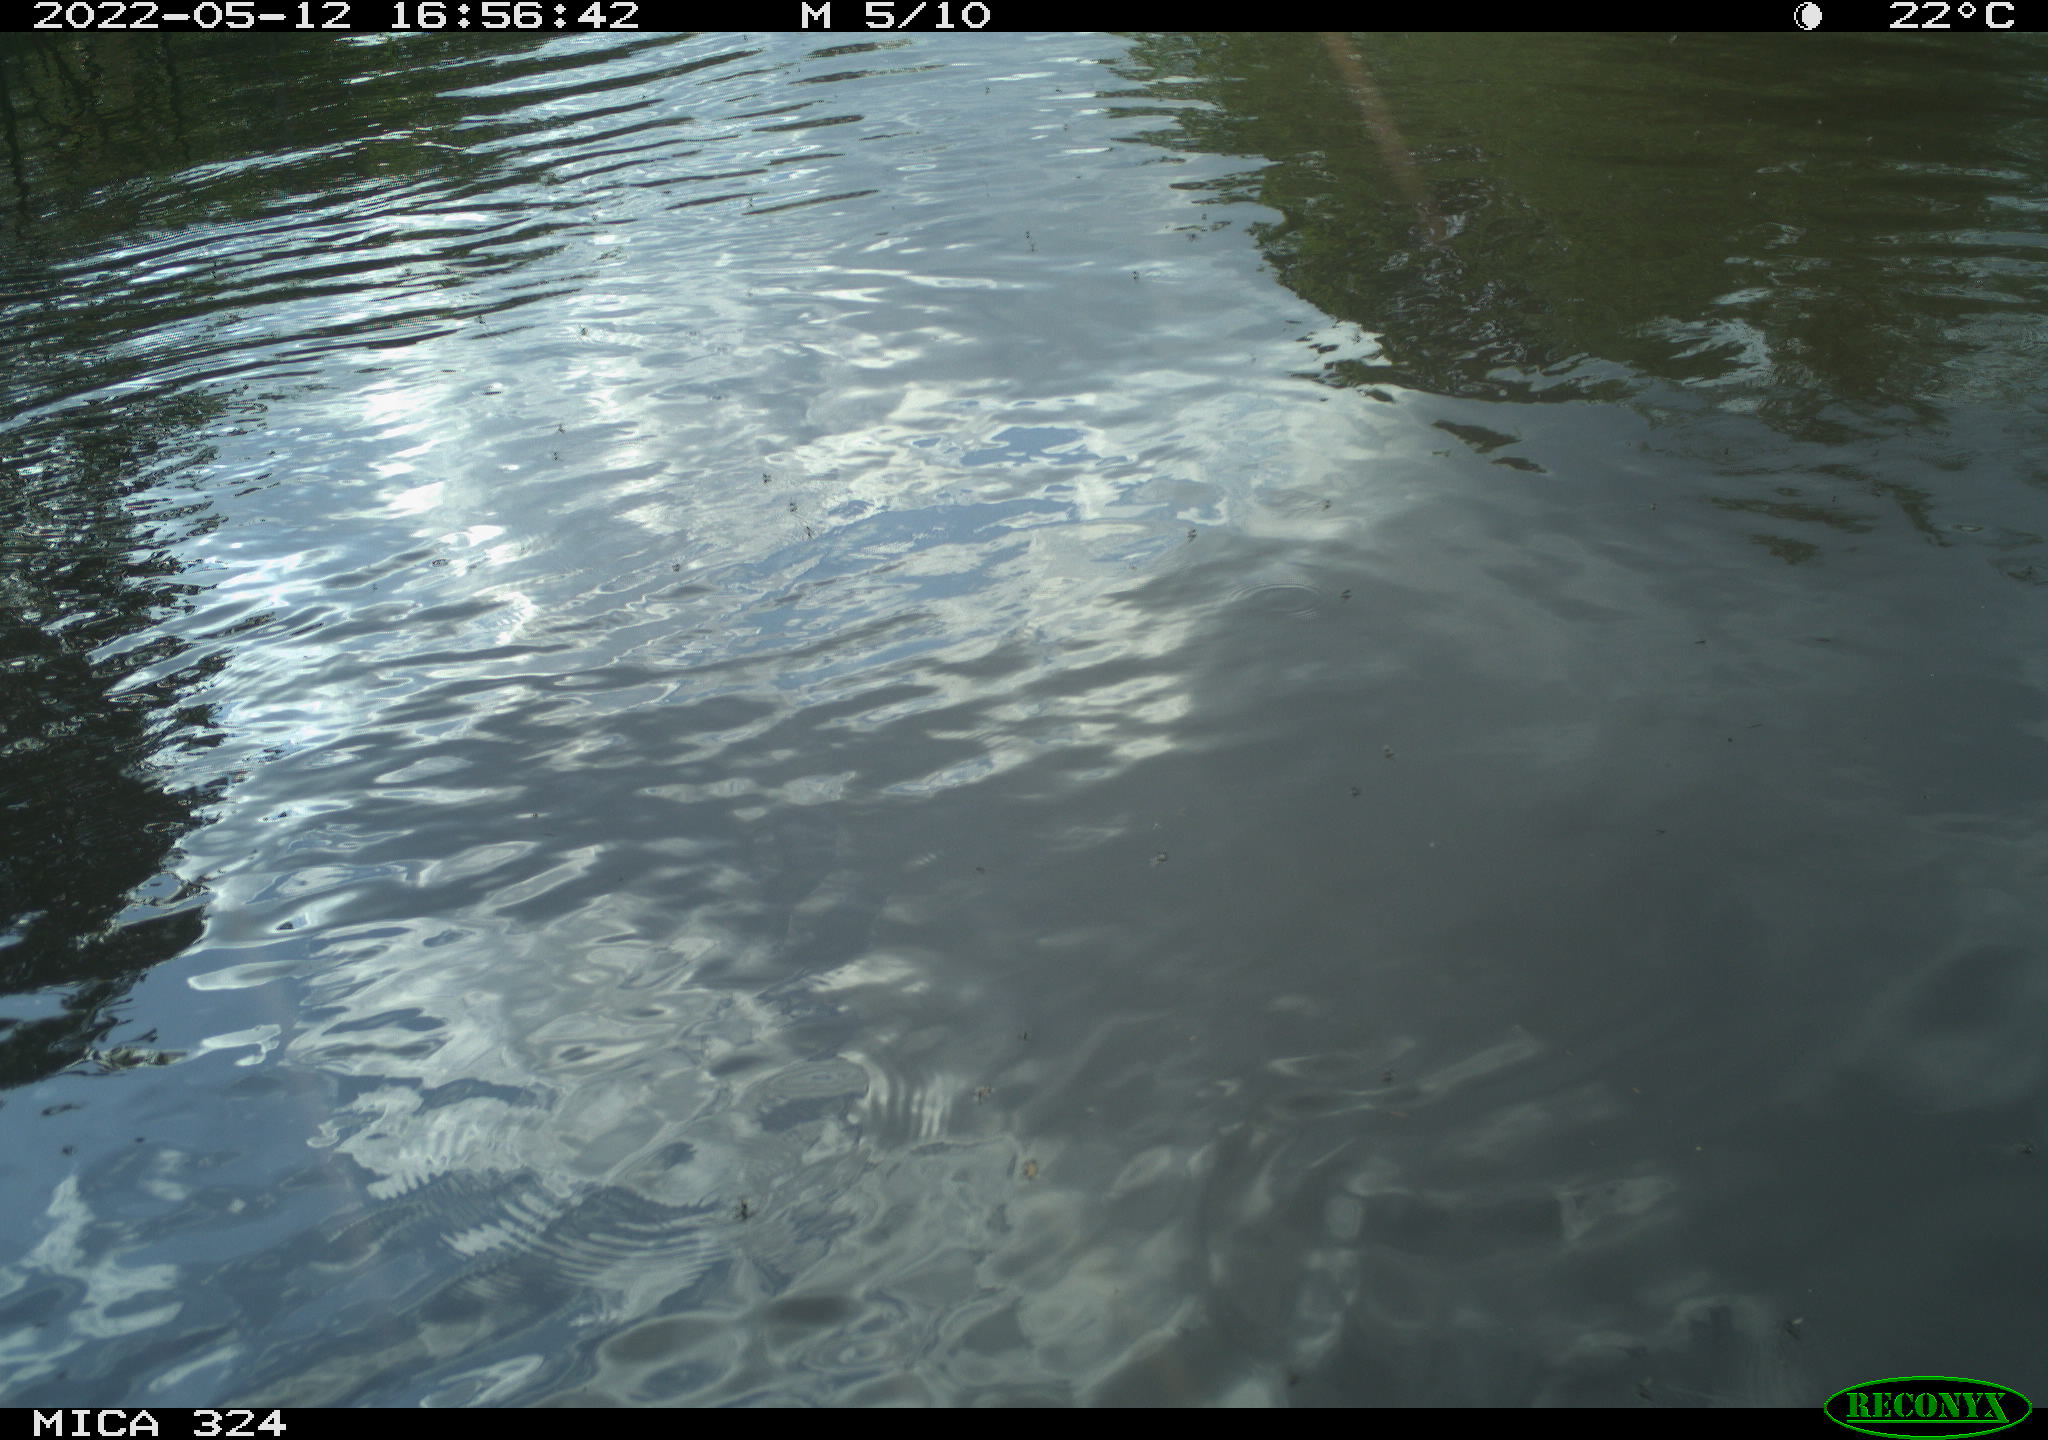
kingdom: Animalia
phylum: Chordata
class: Aves
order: Anseriformes
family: Anatidae
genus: Anas
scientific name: Anas platyrhynchos
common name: Mallard
